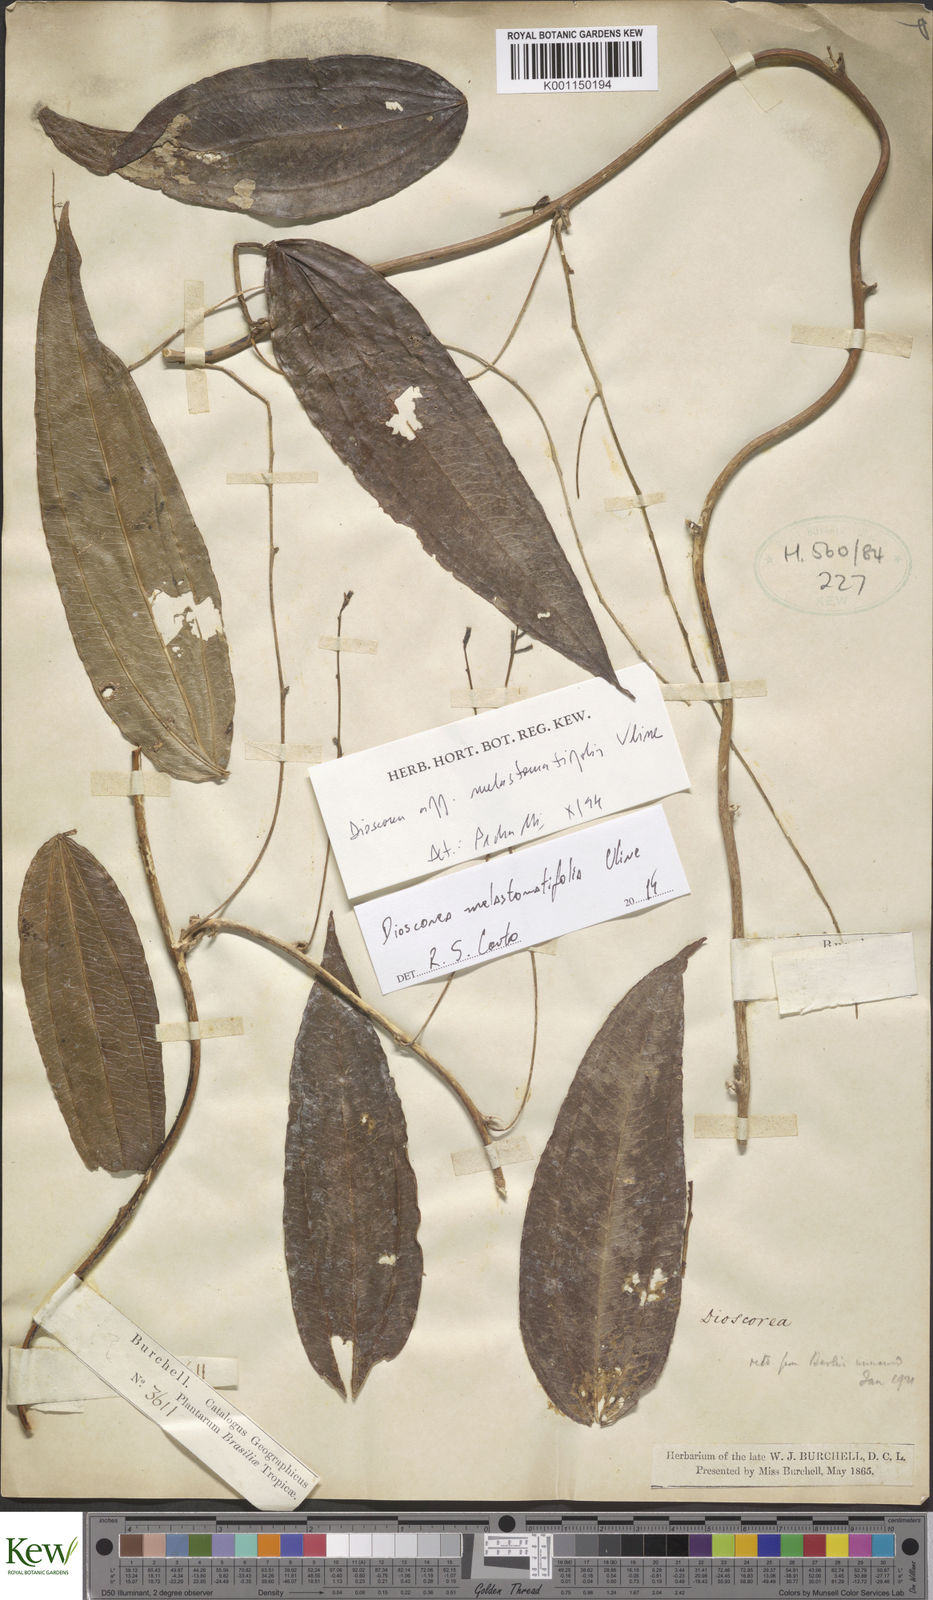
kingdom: Plantae
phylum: Tracheophyta
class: Liliopsida
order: Dioscoreales
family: Dioscoreaceae
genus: Dioscorea
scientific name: Dioscorea
